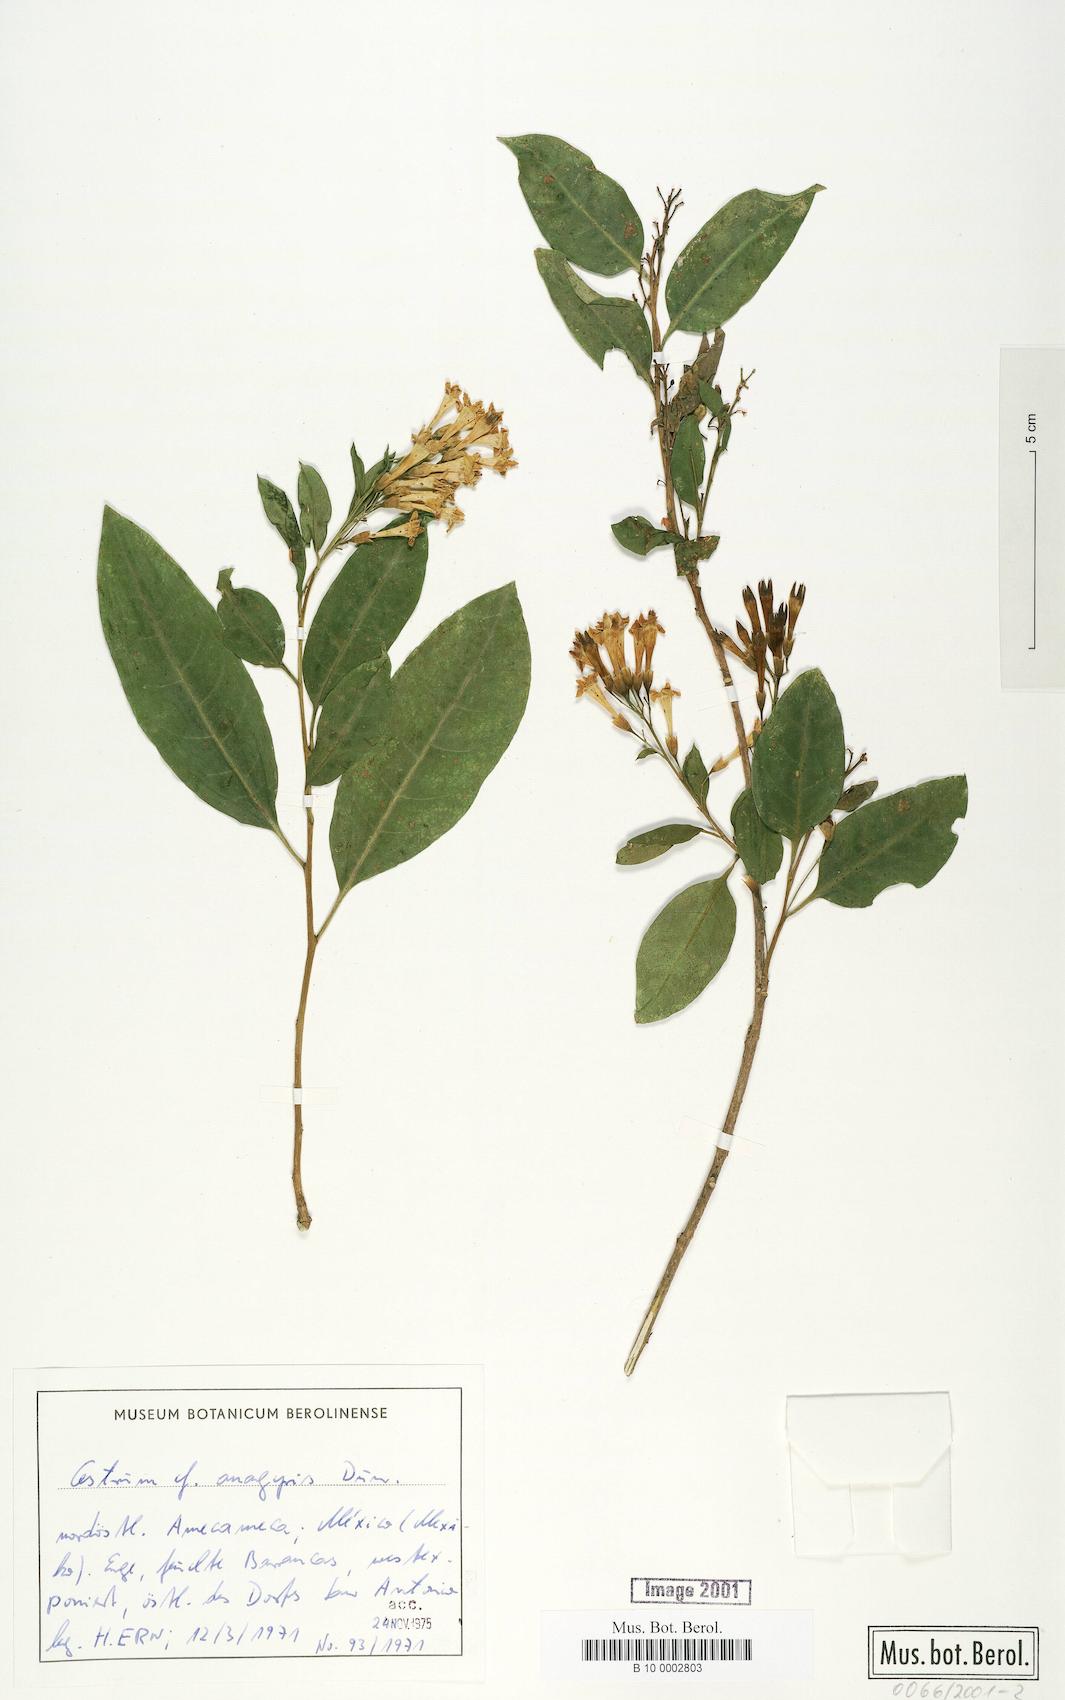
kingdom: Plantae
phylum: Tracheophyta
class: Magnoliopsida
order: Solanales
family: Solanaceae
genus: Cestrum
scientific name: Cestrum aurantiacum
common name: Orange cestrum
